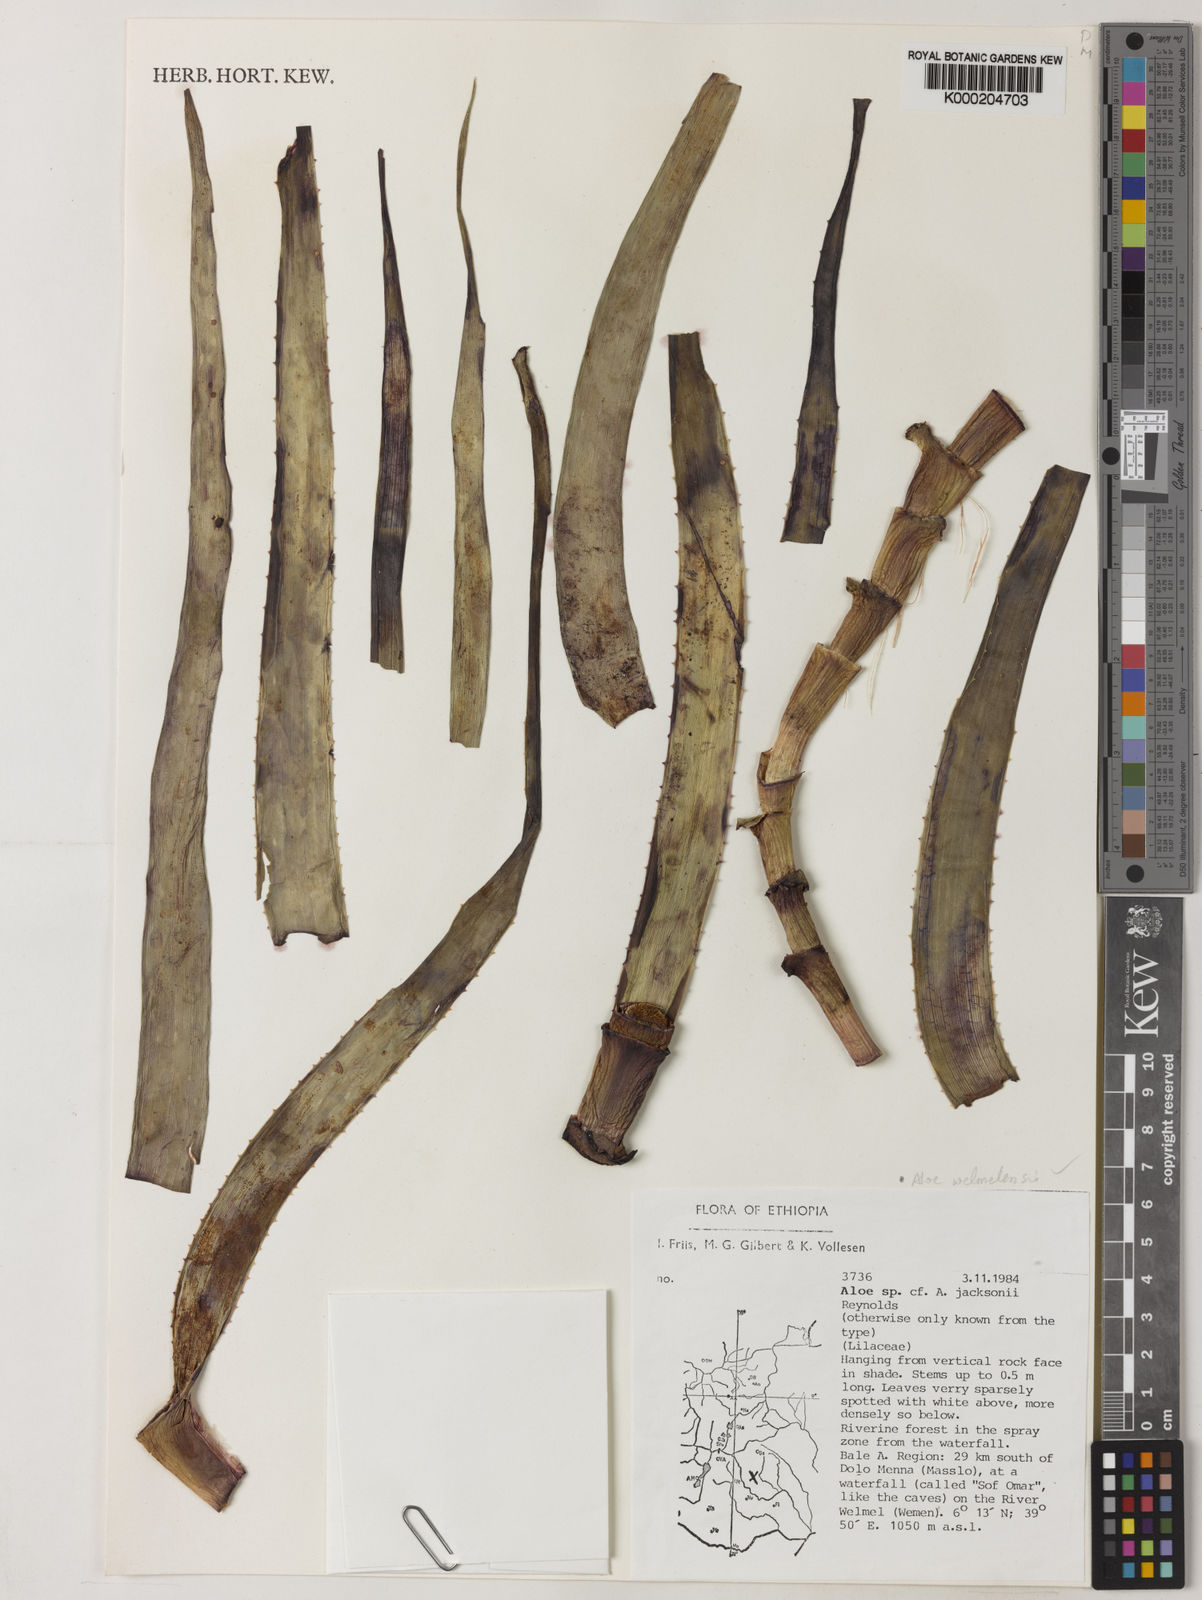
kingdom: Plantae
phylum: Tracheophyta
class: Liliopsida
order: Asparagales
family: Asphodelaceae
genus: Aloe
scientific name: Aloe welmelensis
